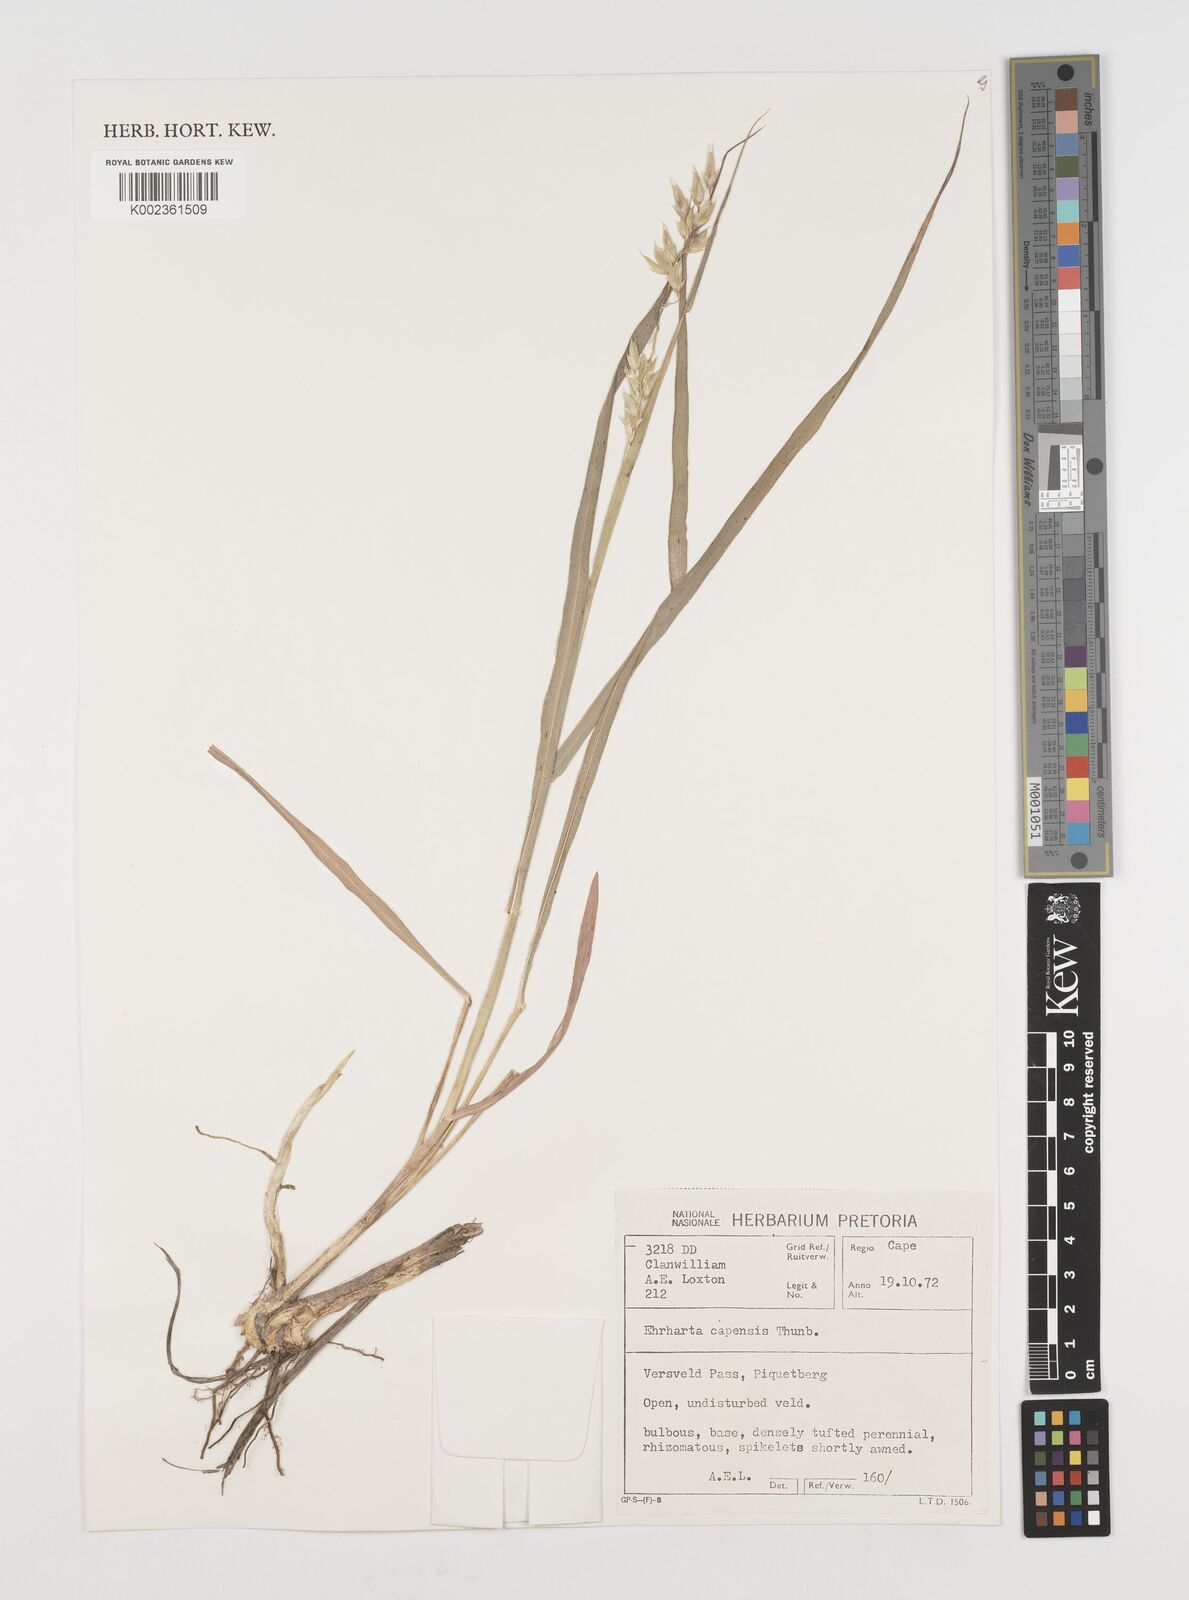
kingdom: Plantae
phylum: Tracheophyta
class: Liliopsida
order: Poales
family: Poaceae
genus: Ehrharta
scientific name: Ehrharta capensis
